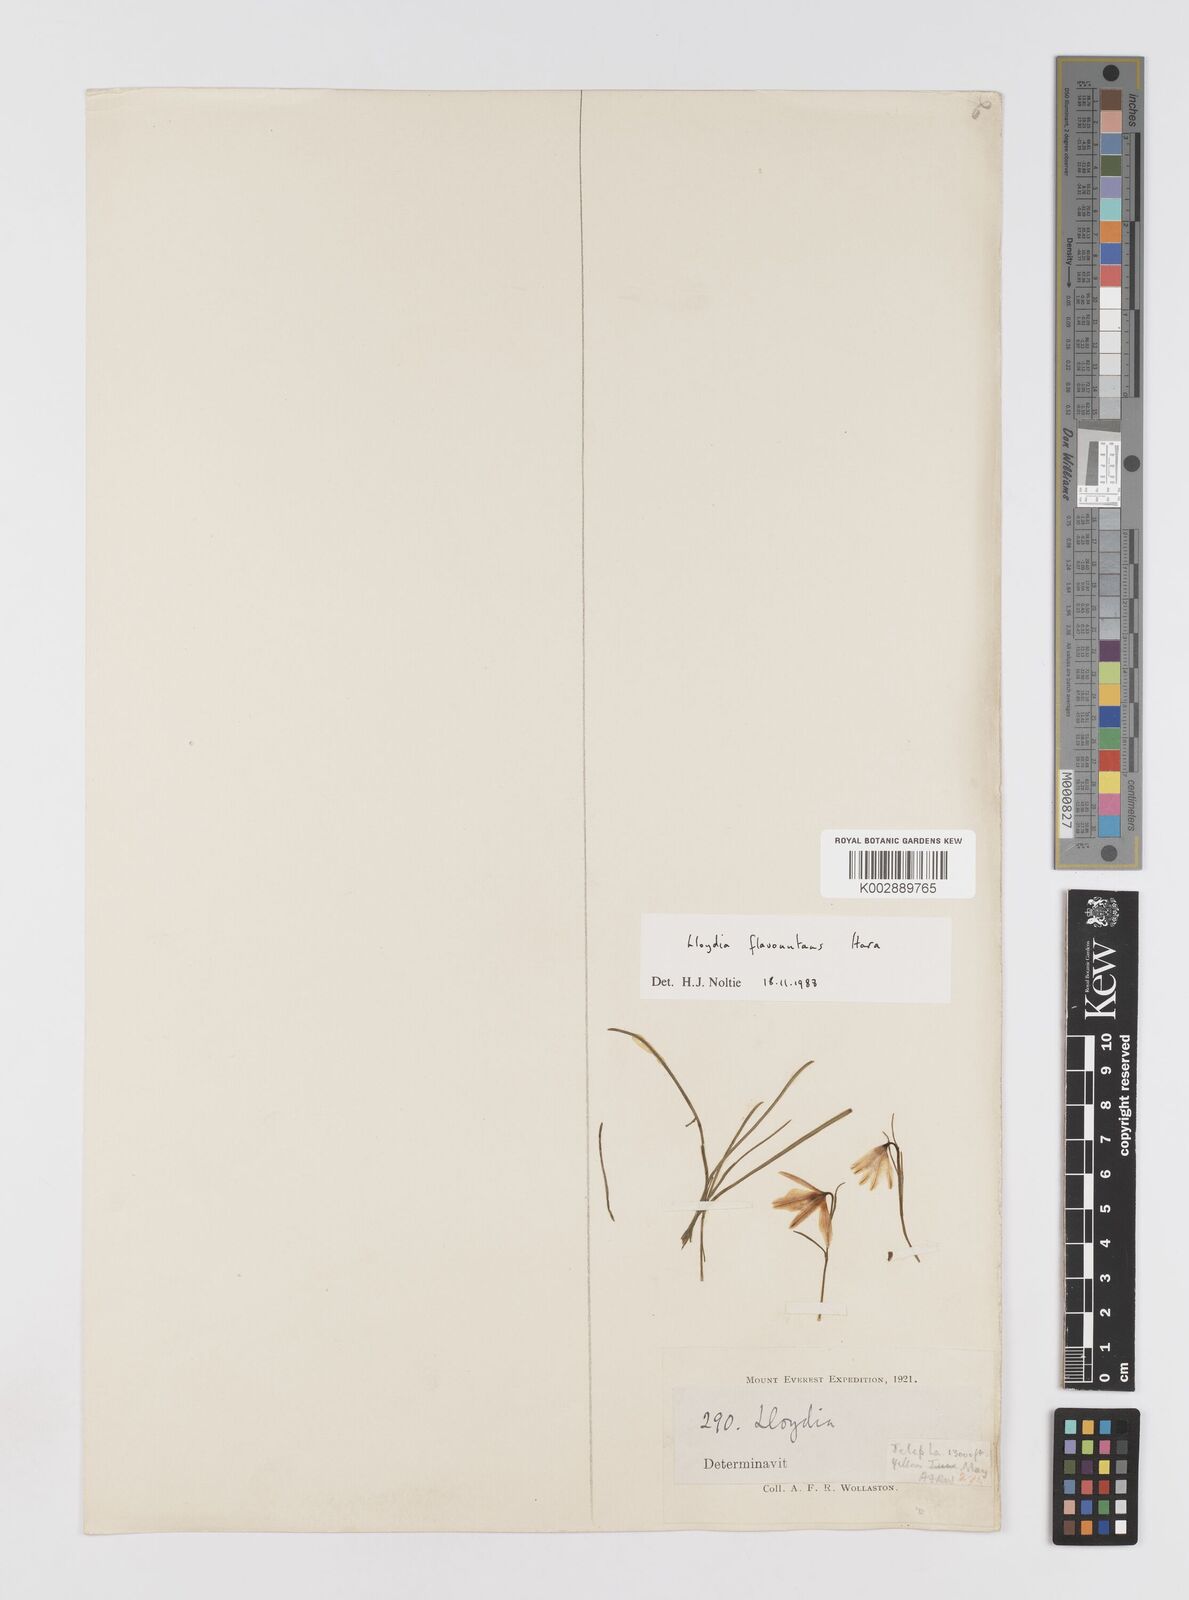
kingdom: Plantae
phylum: Tracheophyta
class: Liliopsida
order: Liliales
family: Liliaceae
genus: Gagea
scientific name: Gagea flavonutans
